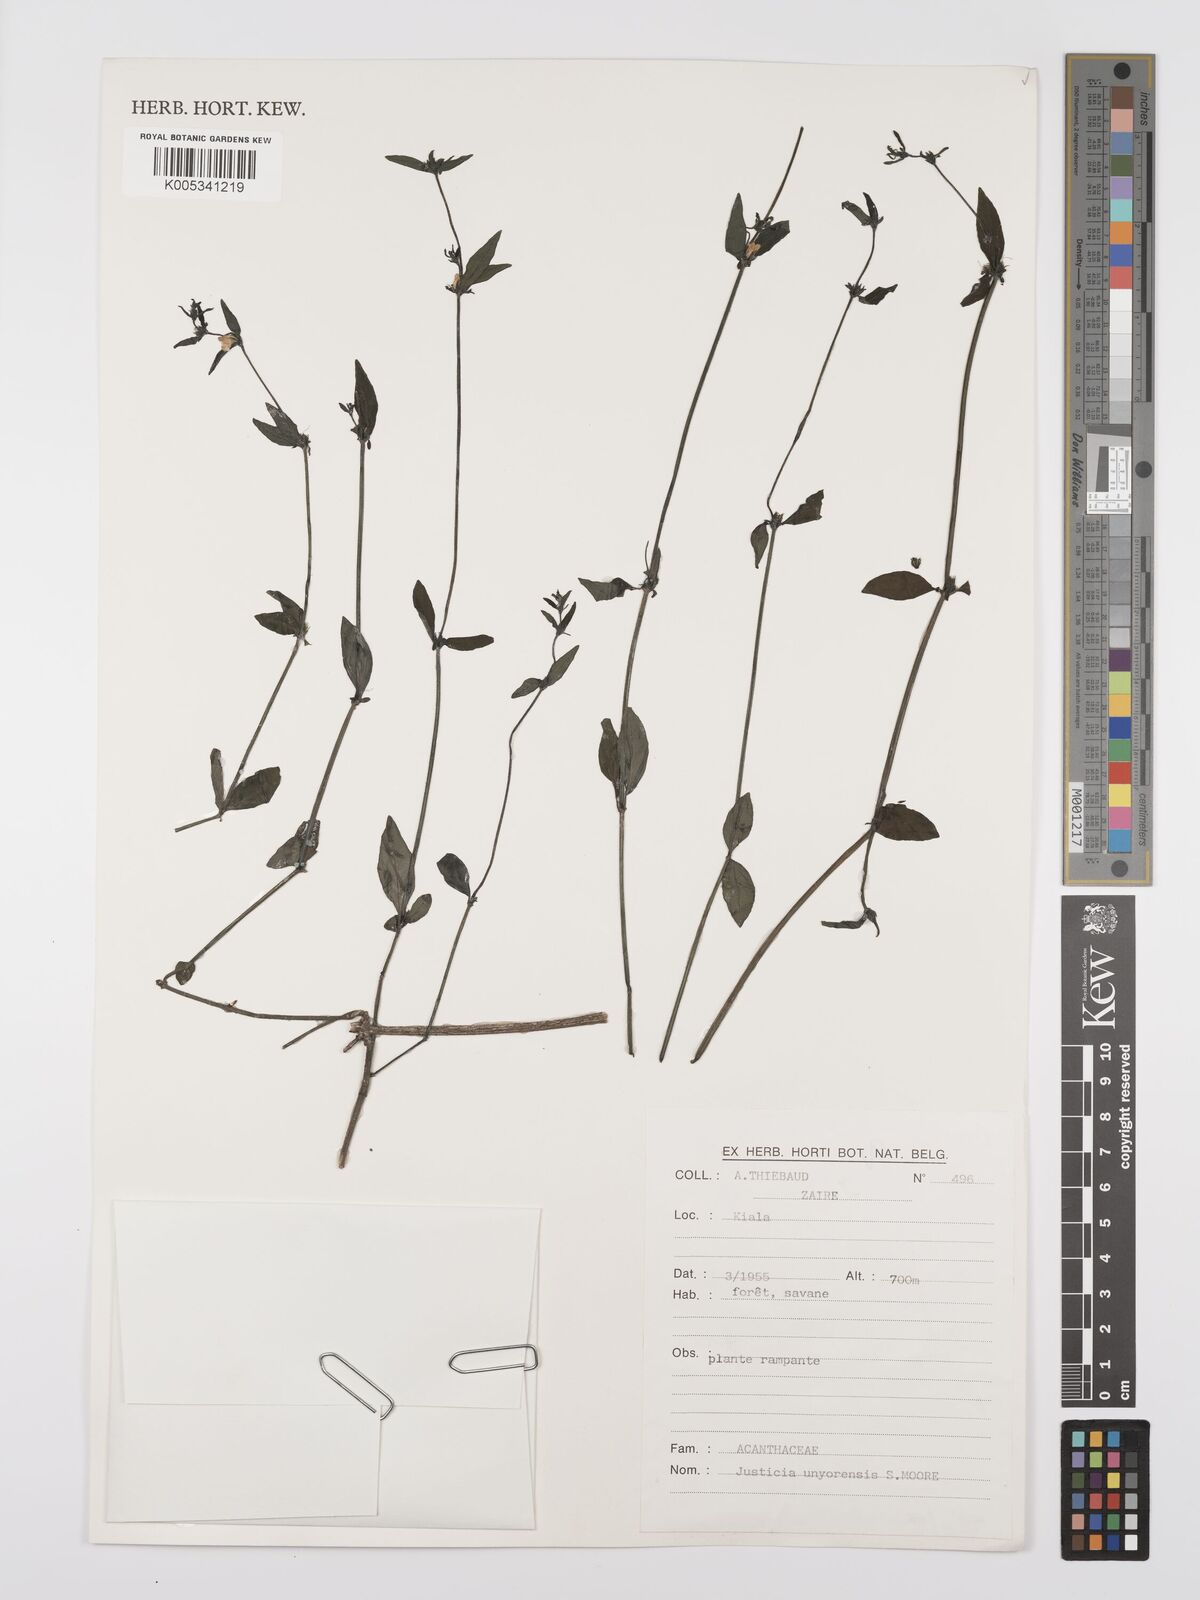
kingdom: Plantae
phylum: Tracheophyta
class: Magnoliopsida
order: Lamiales
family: Acanthaceae
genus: Justicia
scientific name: Justicia unyorensis
